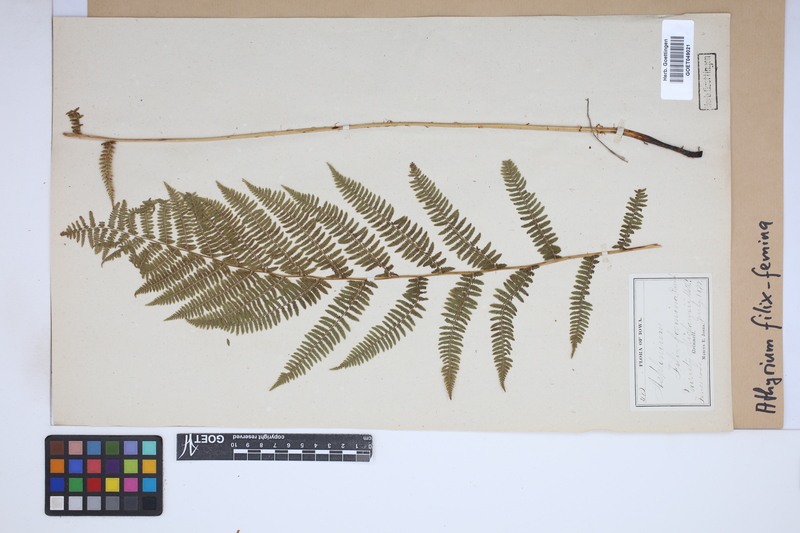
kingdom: Plantae
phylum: Tracheophyta
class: Polypodiopsida
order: Polypodiales
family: Athyriaceae
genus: Athyrium
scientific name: Athyrium filix-femina
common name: Lady fern
